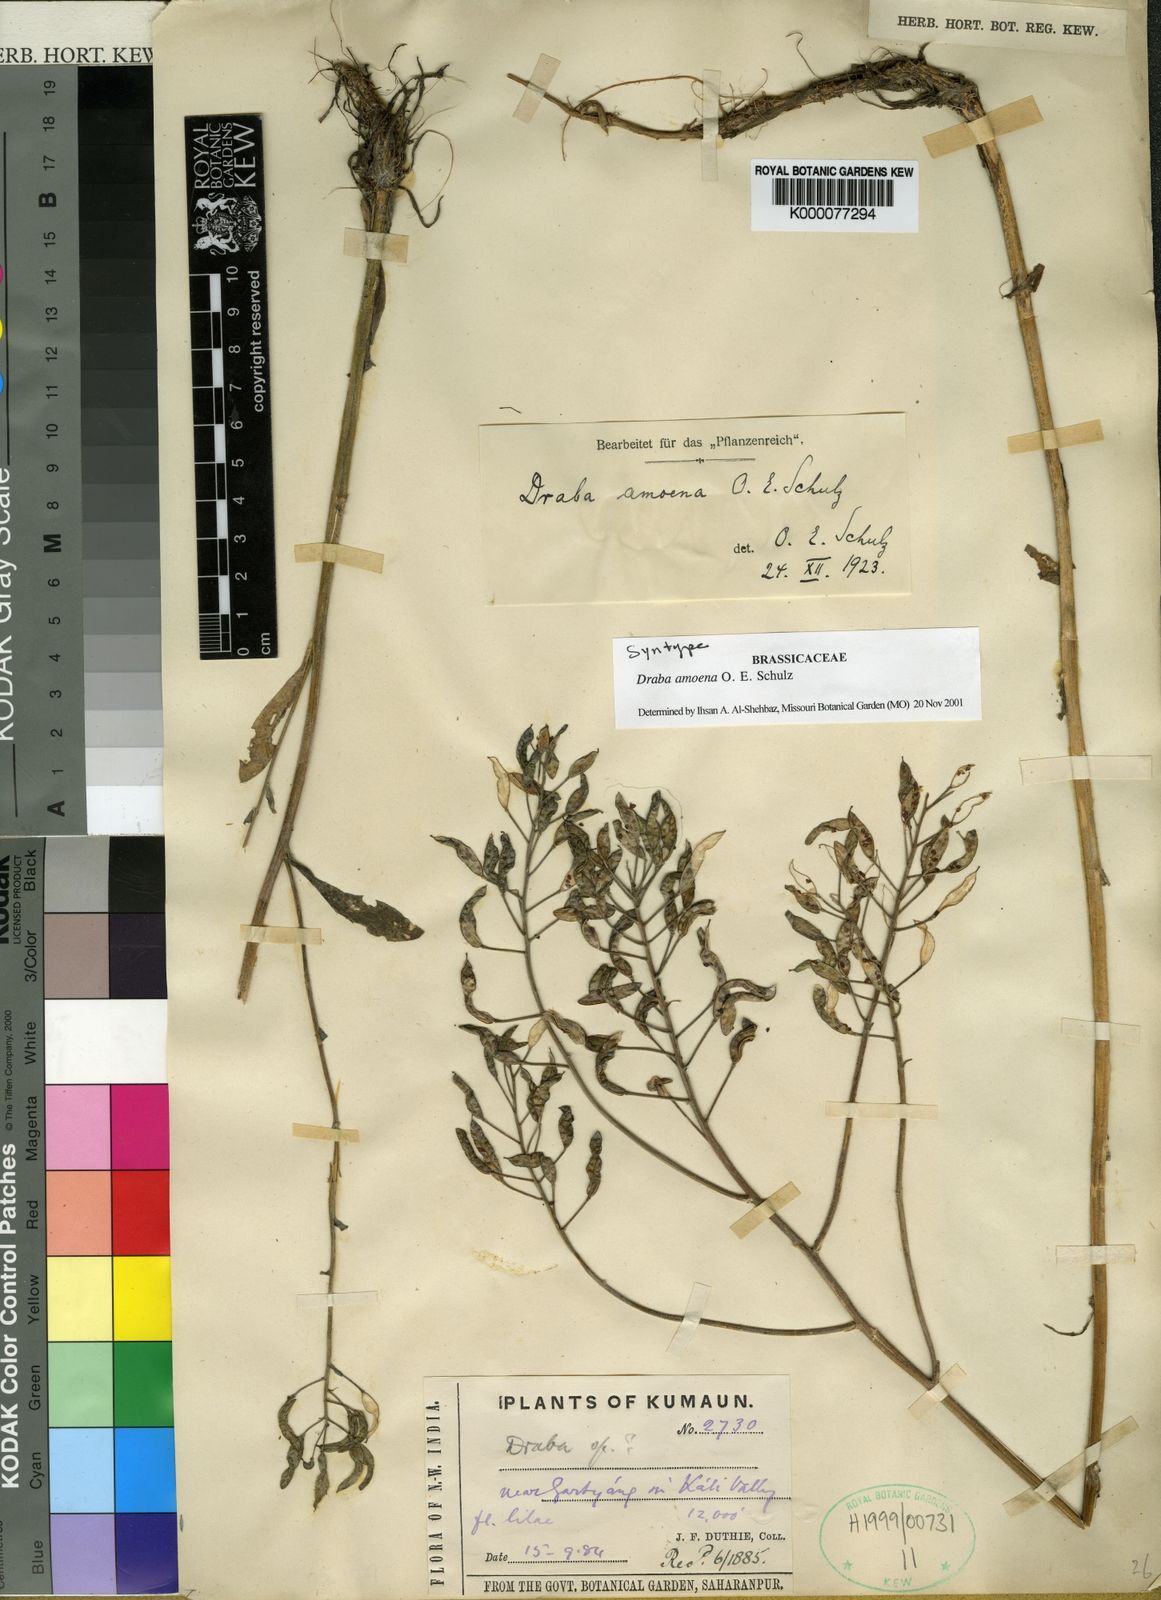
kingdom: Plantae
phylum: Tracheophyta
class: Magnoliopsida
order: Brassicales
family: Brassicaceae
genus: Draba
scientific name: Draba amoena
